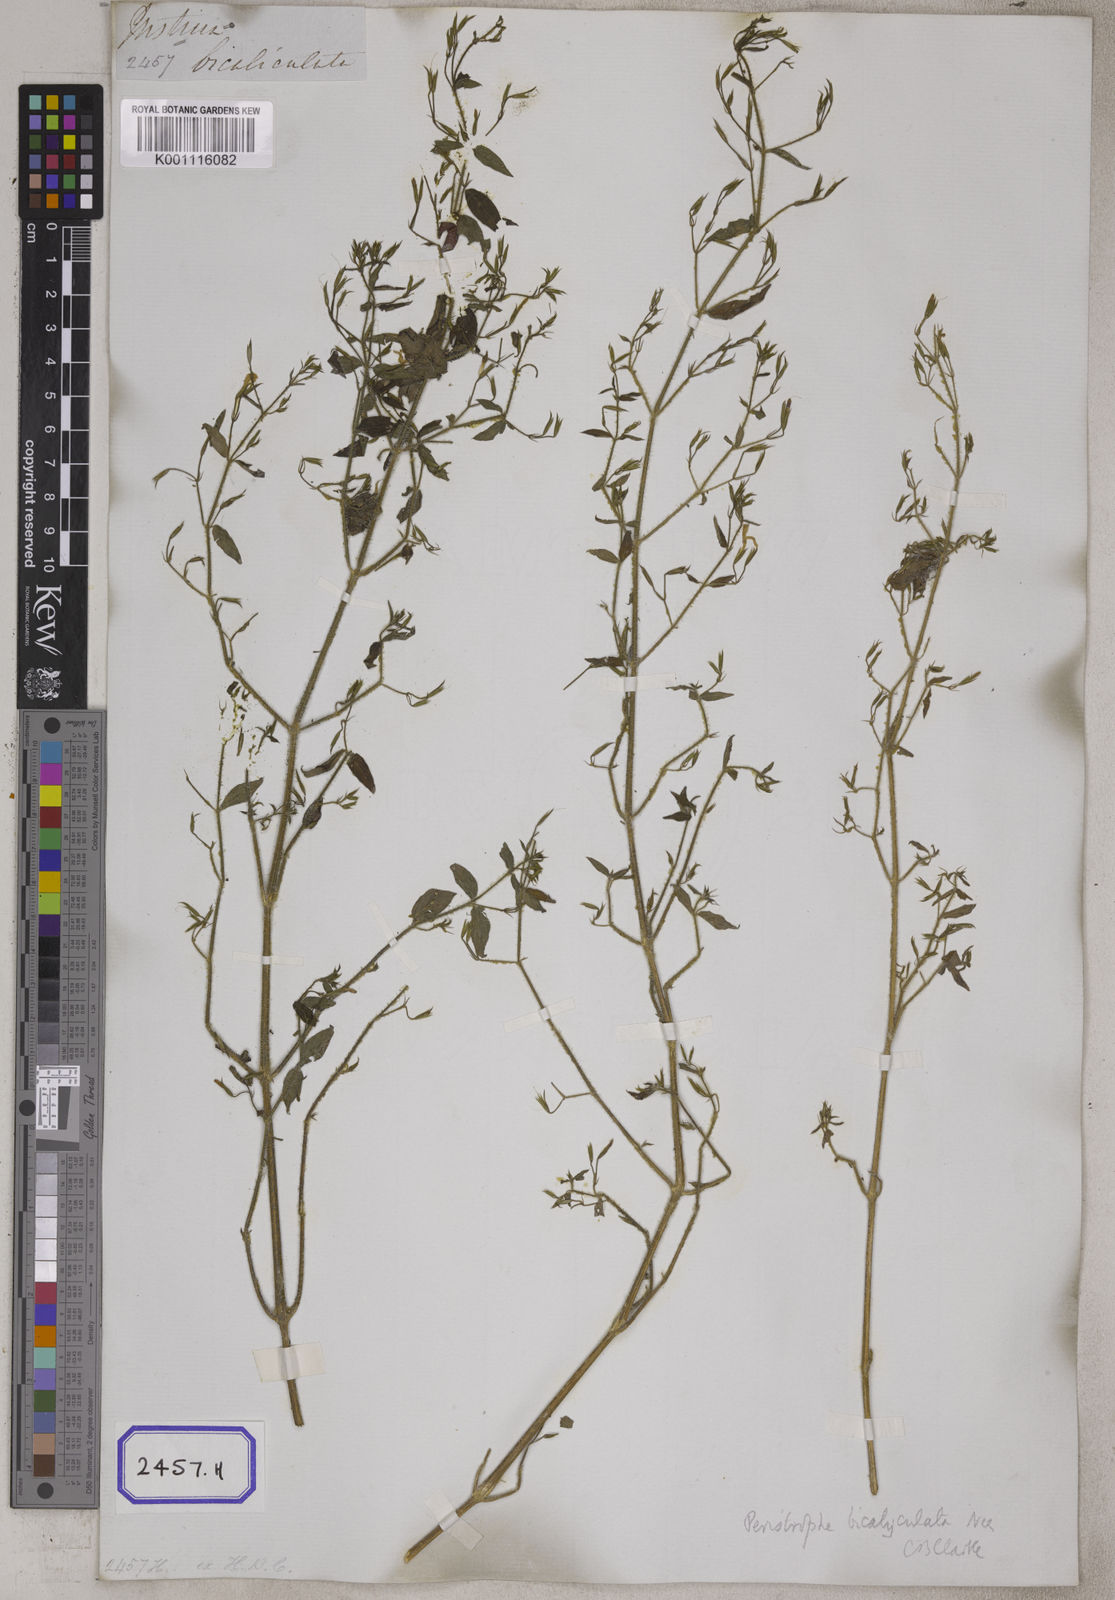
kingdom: Plantae
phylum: Tracheophyta
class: Magnoliopsida
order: Lamiales
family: Acanthaceae
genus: Dicliptera
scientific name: Dicliptera paniculata
